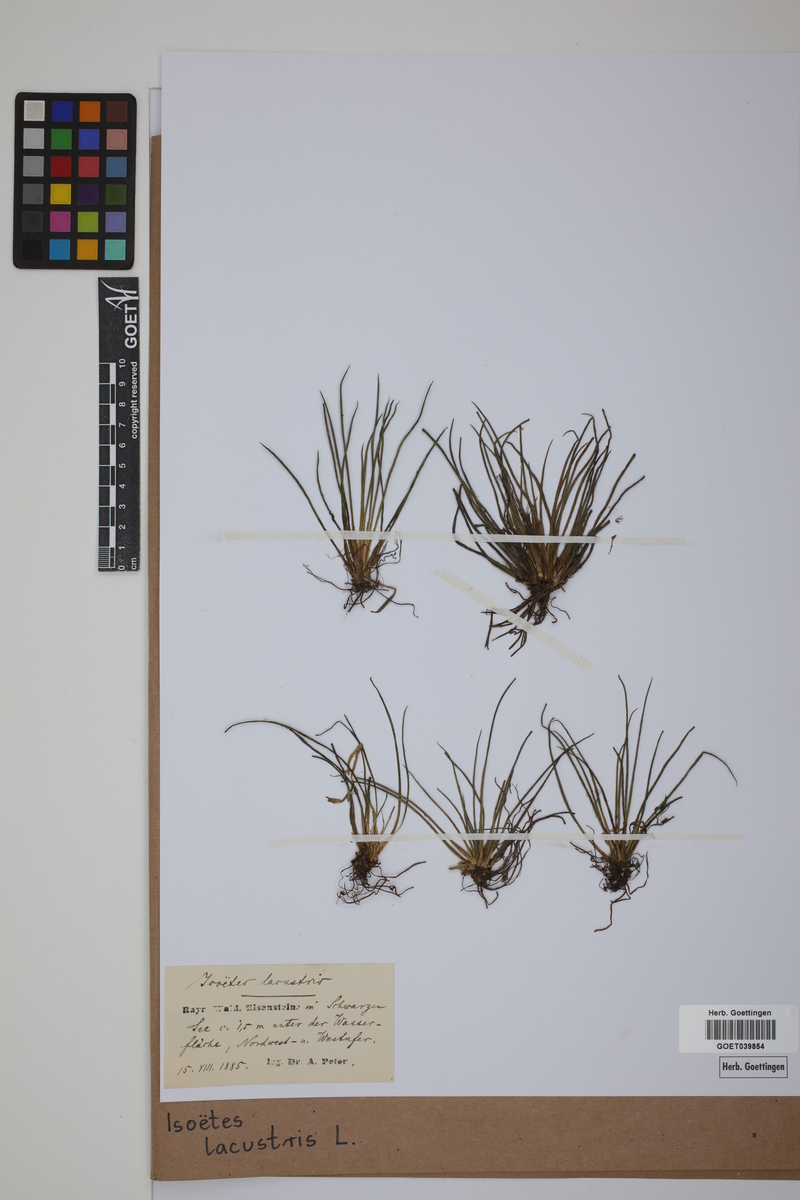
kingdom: Plantae
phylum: Tracheophyta
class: Lycopodiopsida
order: Isoetales
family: Isoetaceae
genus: Isoetes
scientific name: Isoetes lacustris
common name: Common quillwort
